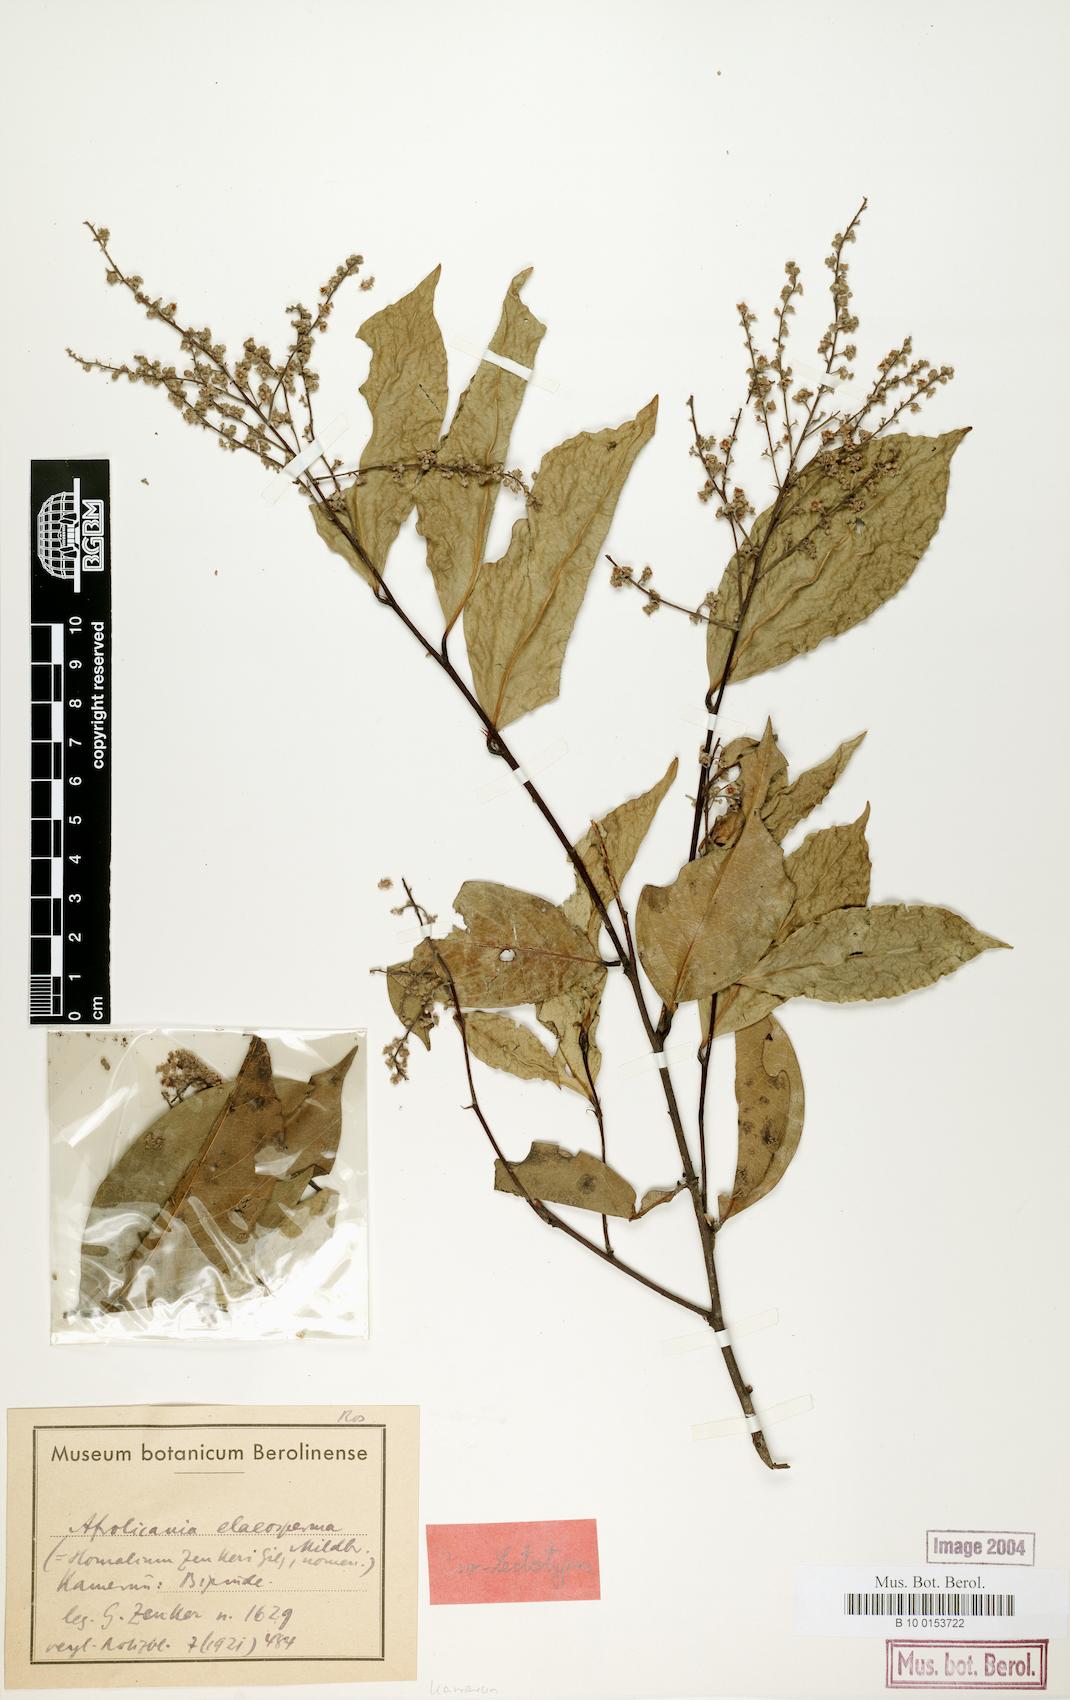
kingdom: Plantae
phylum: Tracheophyta
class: Magnoliopsida
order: Malpighiales
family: Chrysobalanaceae
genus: Afrolicania
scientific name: Afrolicania elaeosperma
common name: Nikko
